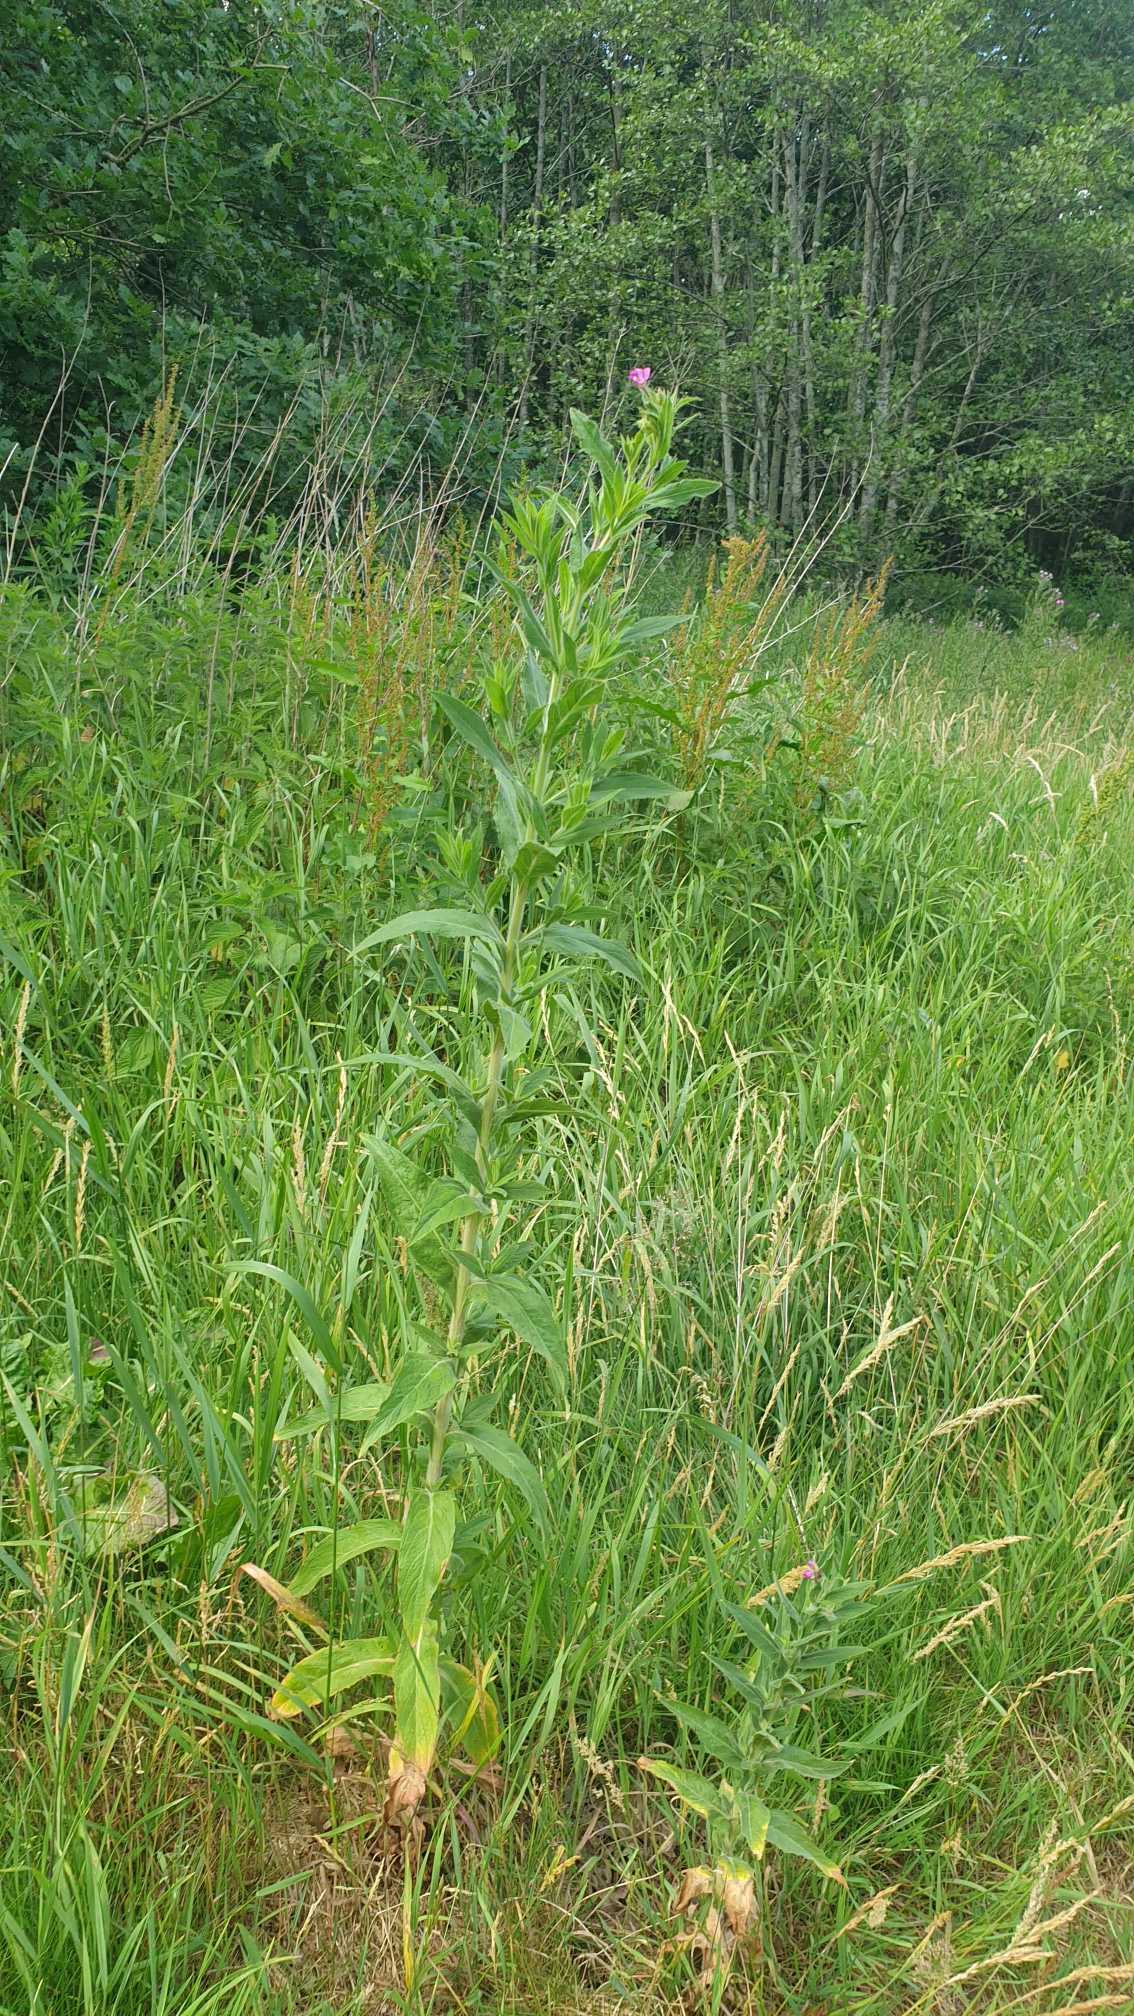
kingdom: Plantae
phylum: Tracheophyta
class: Magnoliopsida
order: Myrtales
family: Onagraceae
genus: Epilobium
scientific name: Epilobium hirsutum
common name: Lådden dueurt
